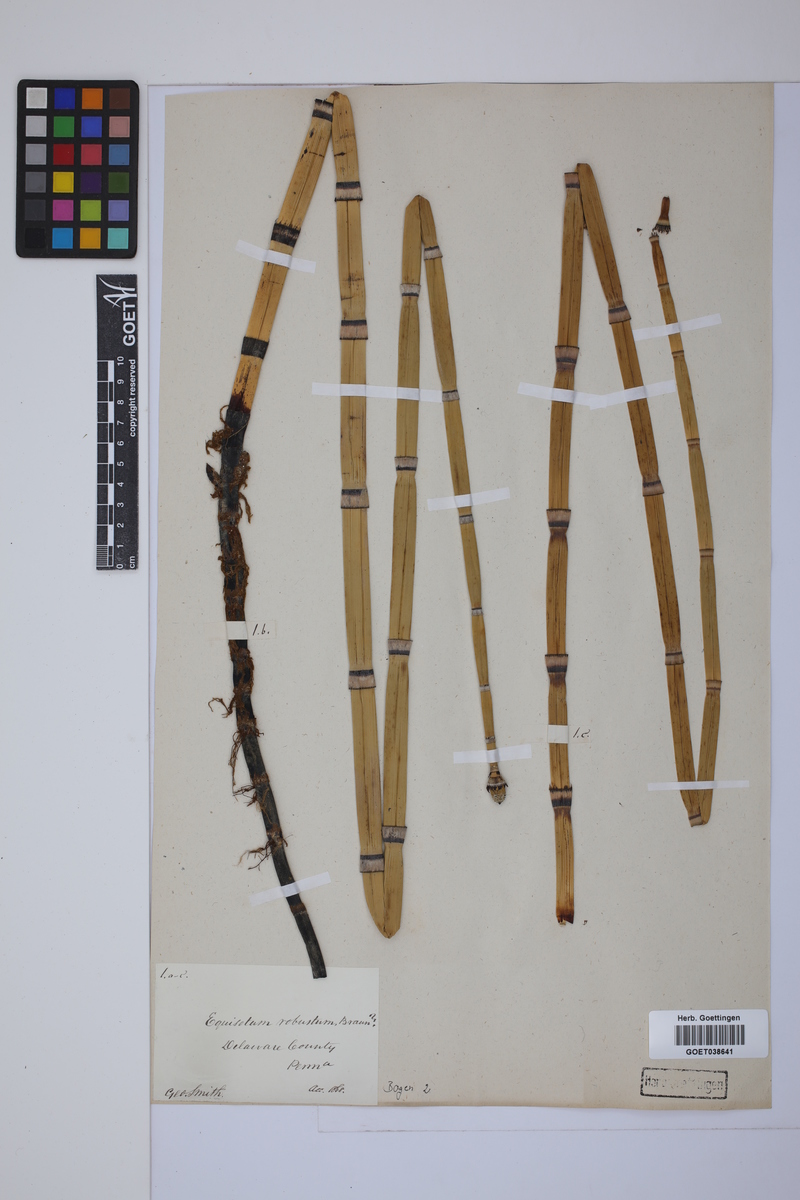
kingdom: Plantae
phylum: Tracheophyta
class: Polypodiopsida
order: Equisetales
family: Equisetaceae
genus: Equisetum
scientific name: Equisetum hyemale
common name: Rough horsetail
